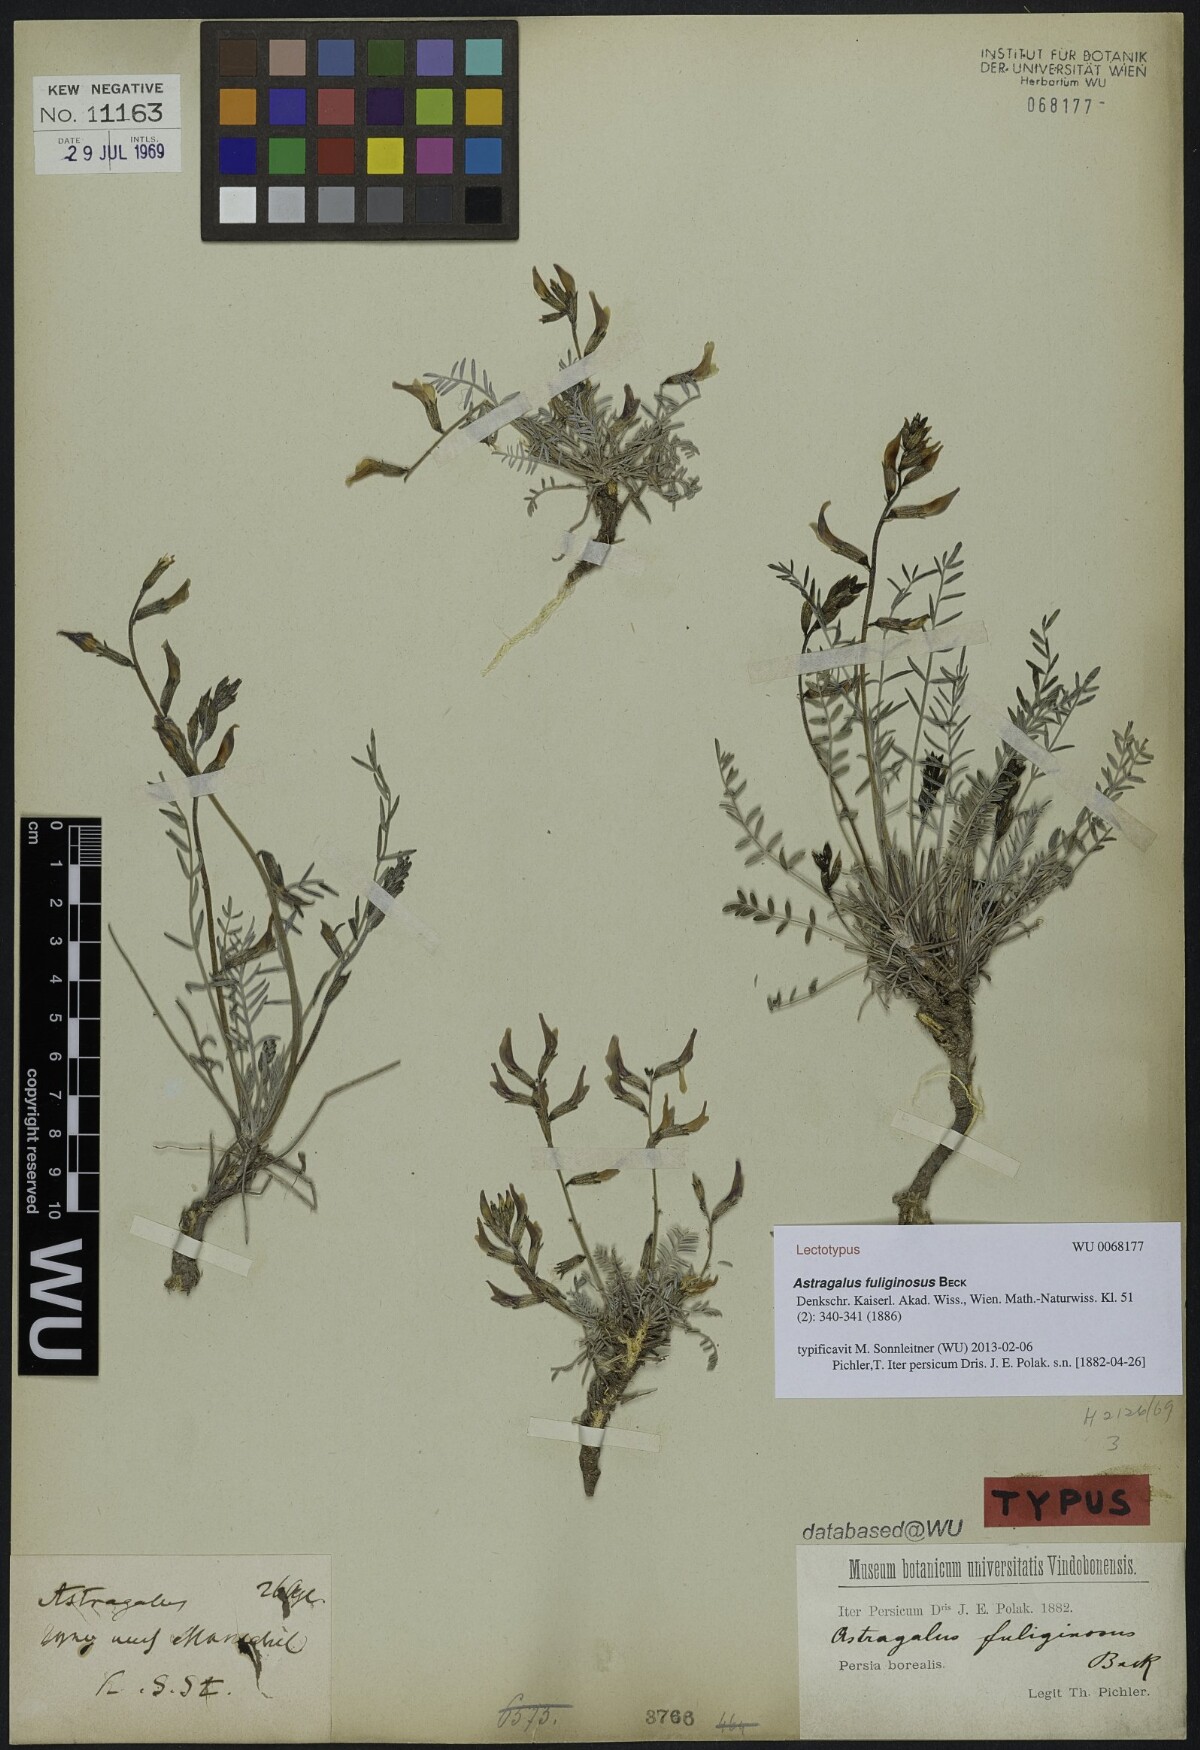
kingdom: Plantae
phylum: Tracheophyta
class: Magnoliopsida
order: Fabales
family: Fabaceae
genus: Astragalus
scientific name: Astragalus fuliginosus
